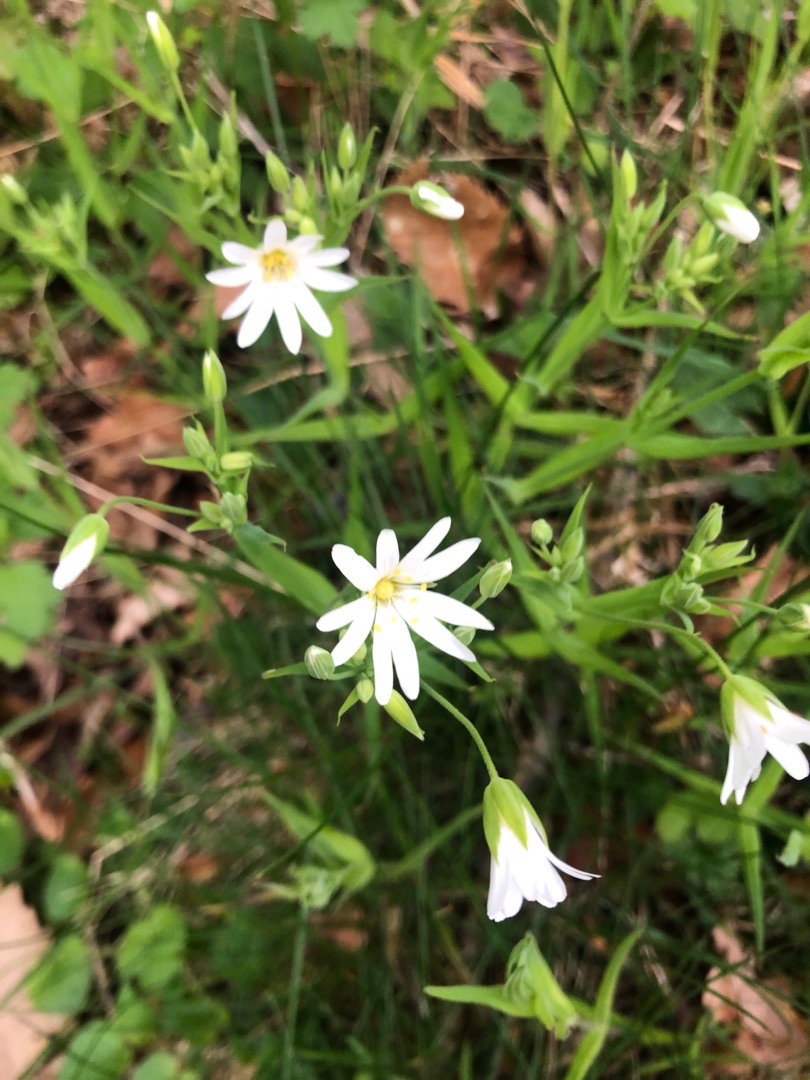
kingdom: Plantae
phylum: Tracheophyta
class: Magnoliopsida
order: Caryophyllales
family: Caryophyllaceae
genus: Rabelera
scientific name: Rabelera holostea
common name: Stor fladstjerne
